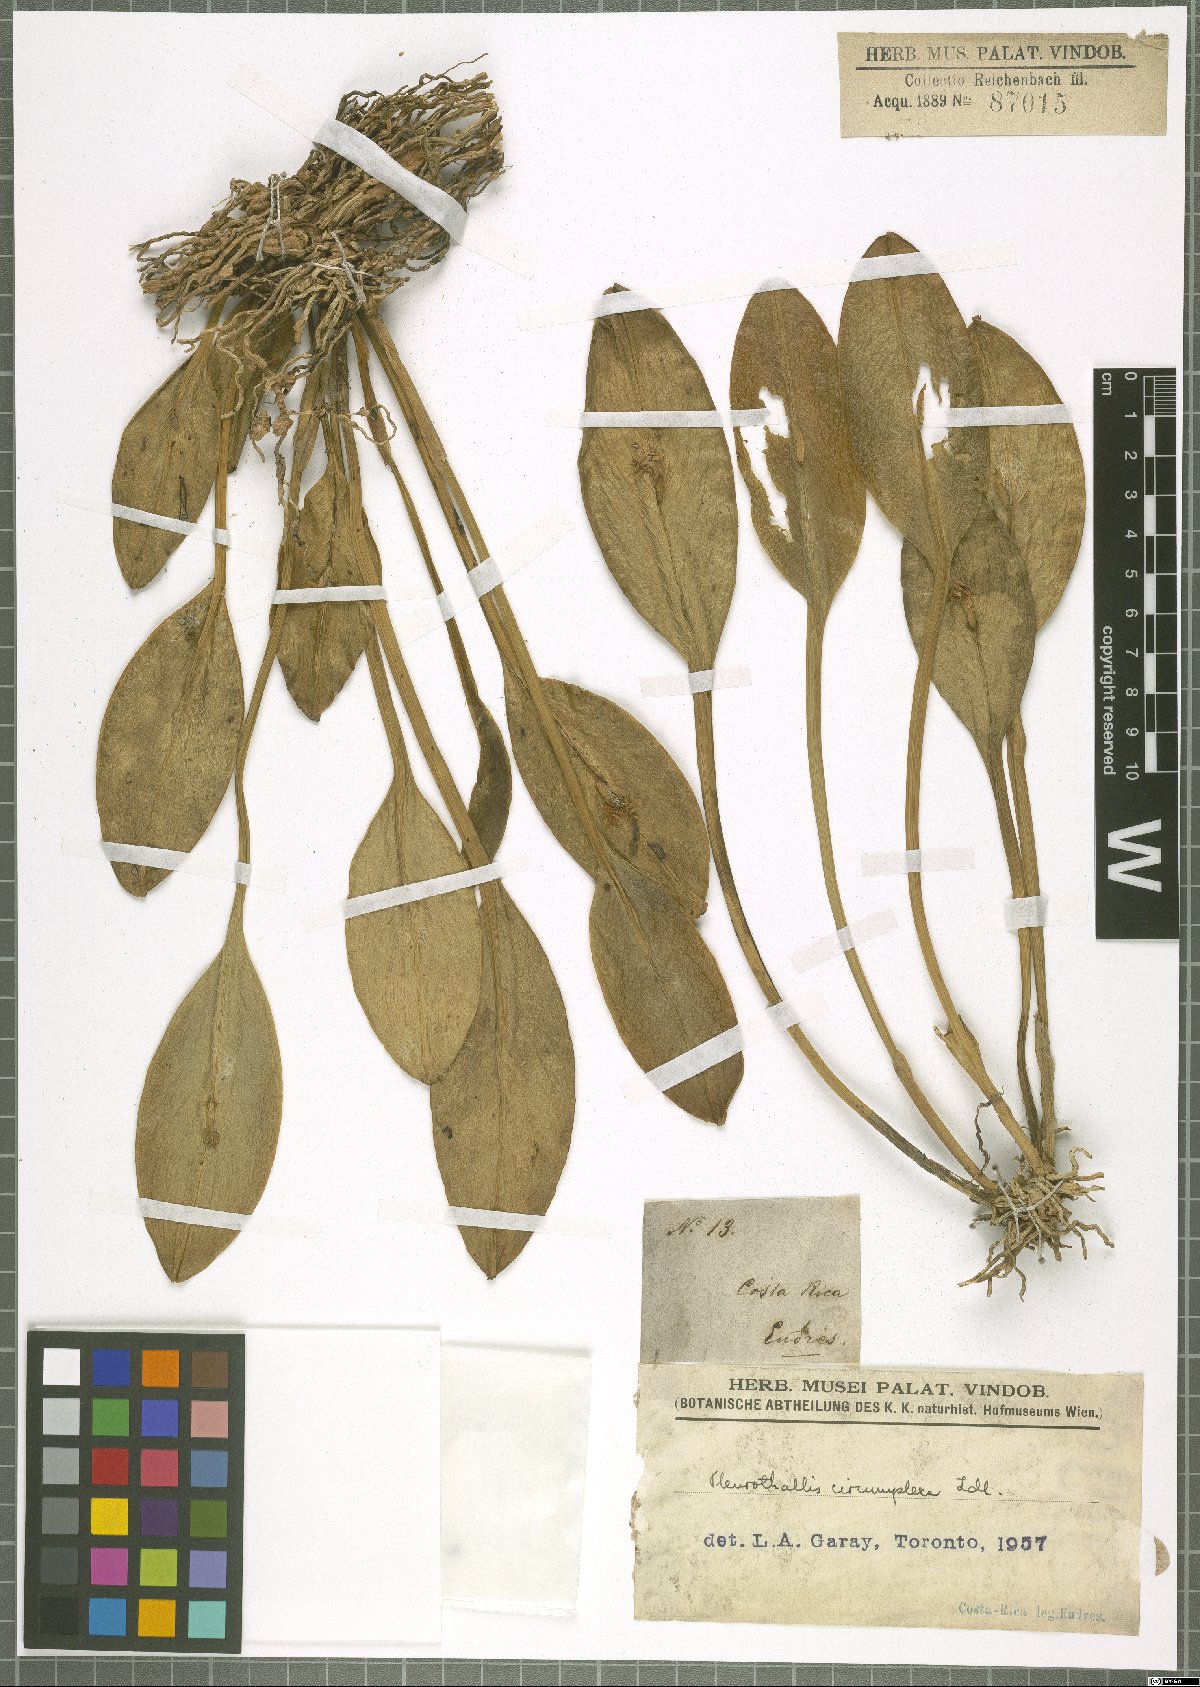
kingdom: Plantae
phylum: Tracheophyta
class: Liliopsida
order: Asparagales
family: Orchidaceae
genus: Acianthera
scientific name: Acianthera circumplexa
